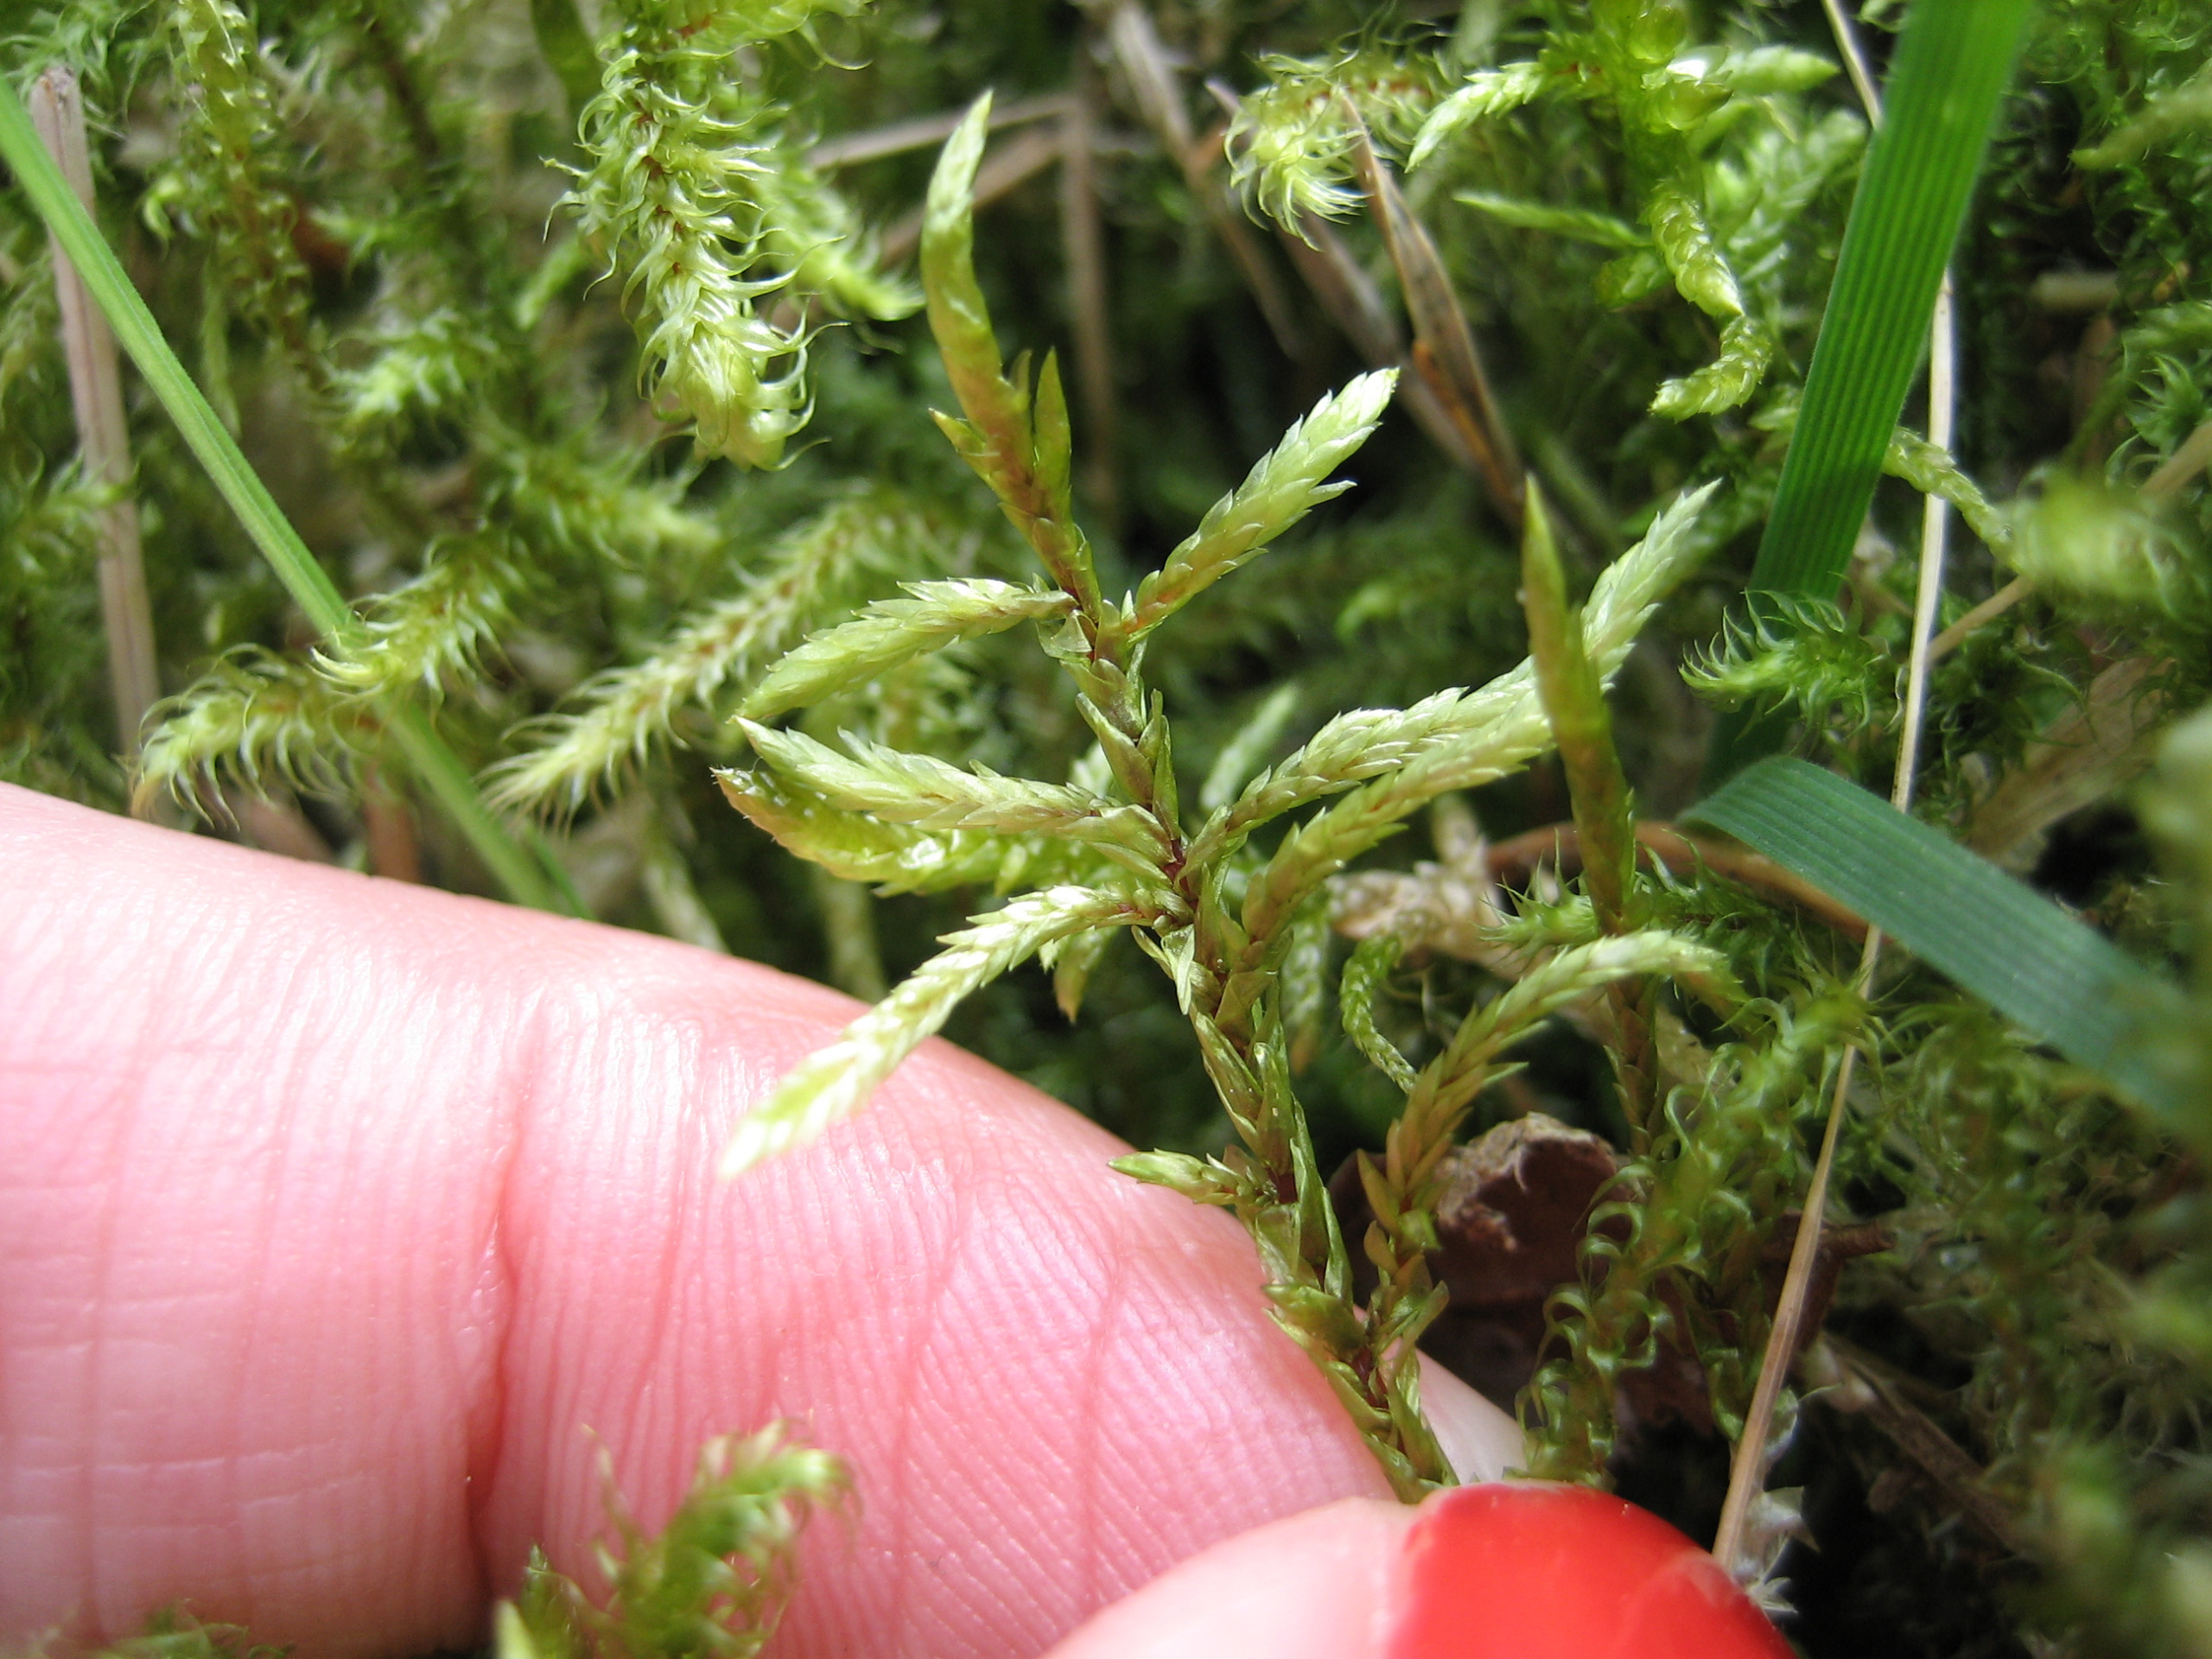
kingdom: Plantae
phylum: Bryophyta
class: Bryopsida
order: Hypnales
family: Hylocomiaceae
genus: Pleurozium
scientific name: Pleurozium schreberi
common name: Trind fyrremos
